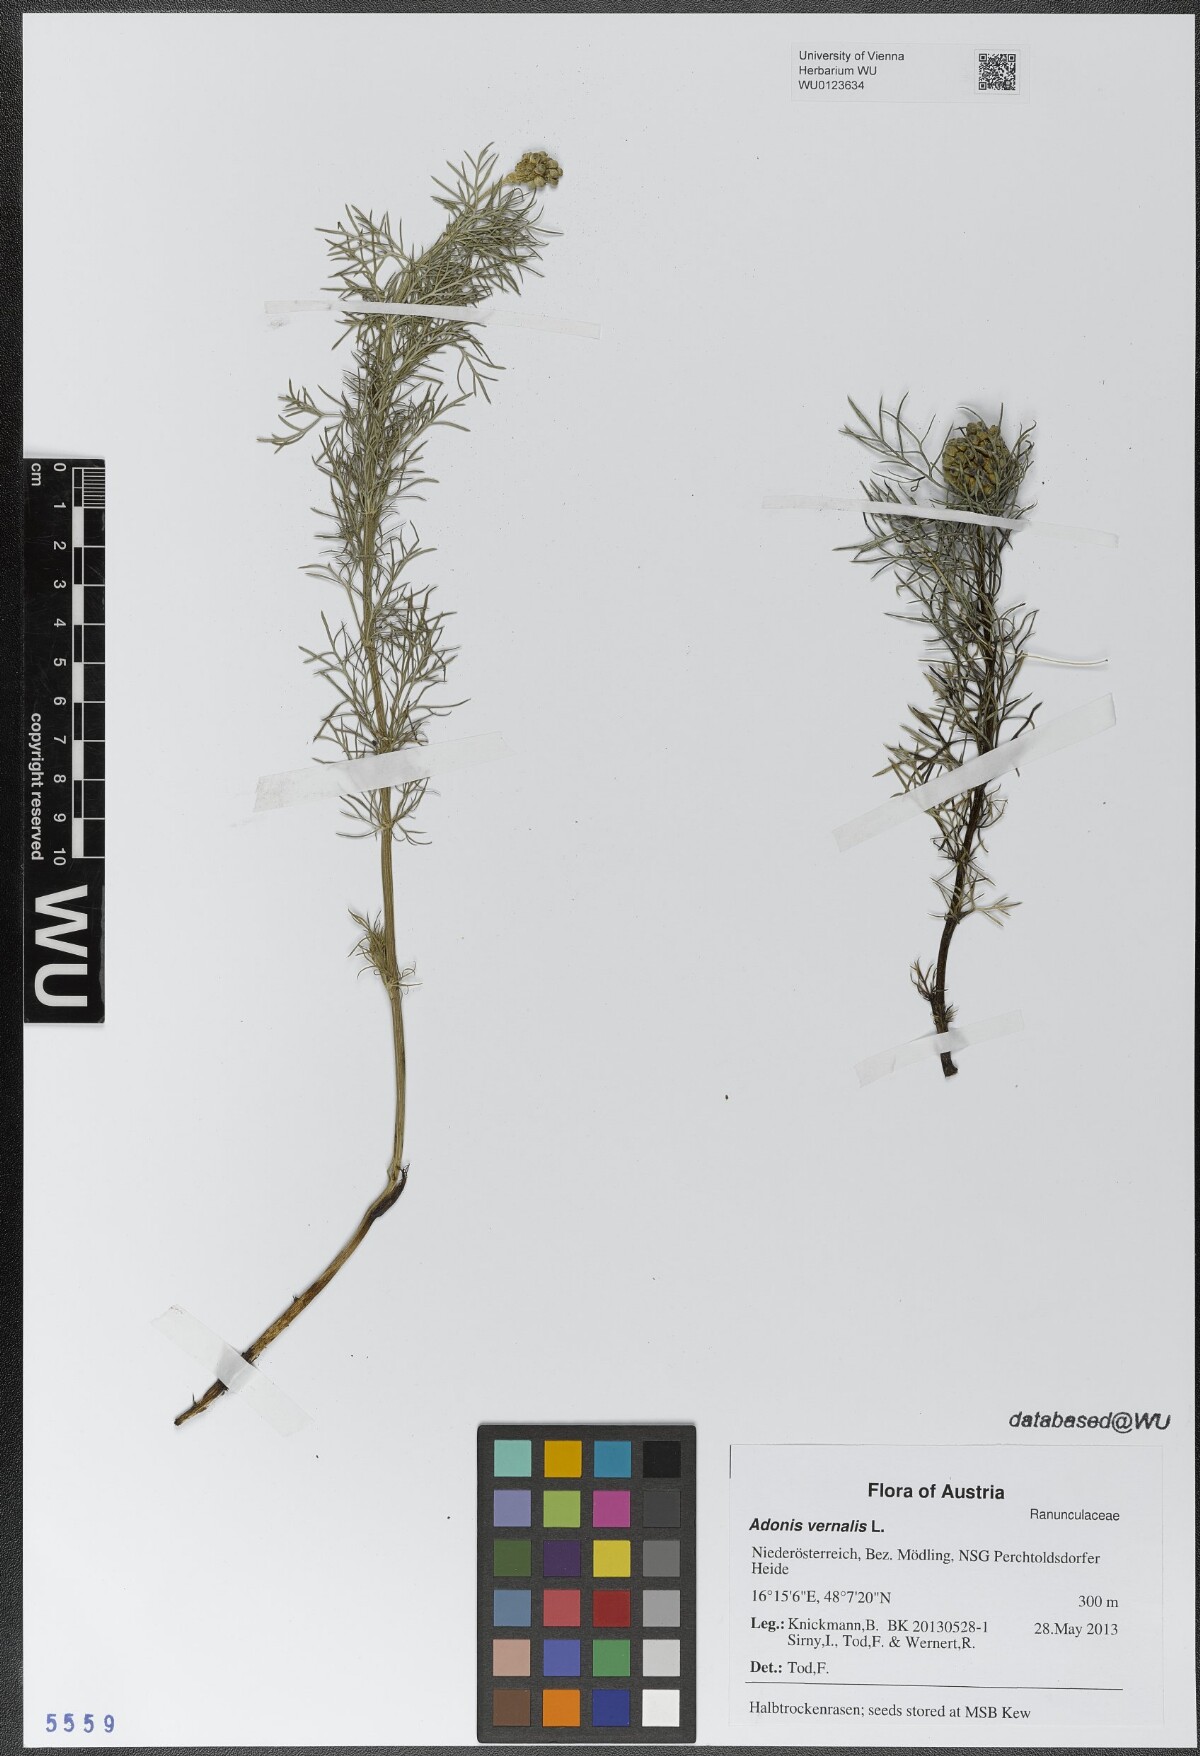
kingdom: Plantae
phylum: Tracheophyta
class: Magnoliopsida
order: Ranunculales
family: Ranunculaceae
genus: Adonis
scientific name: Adonis vernalis
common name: Yellow pheasants-eye
